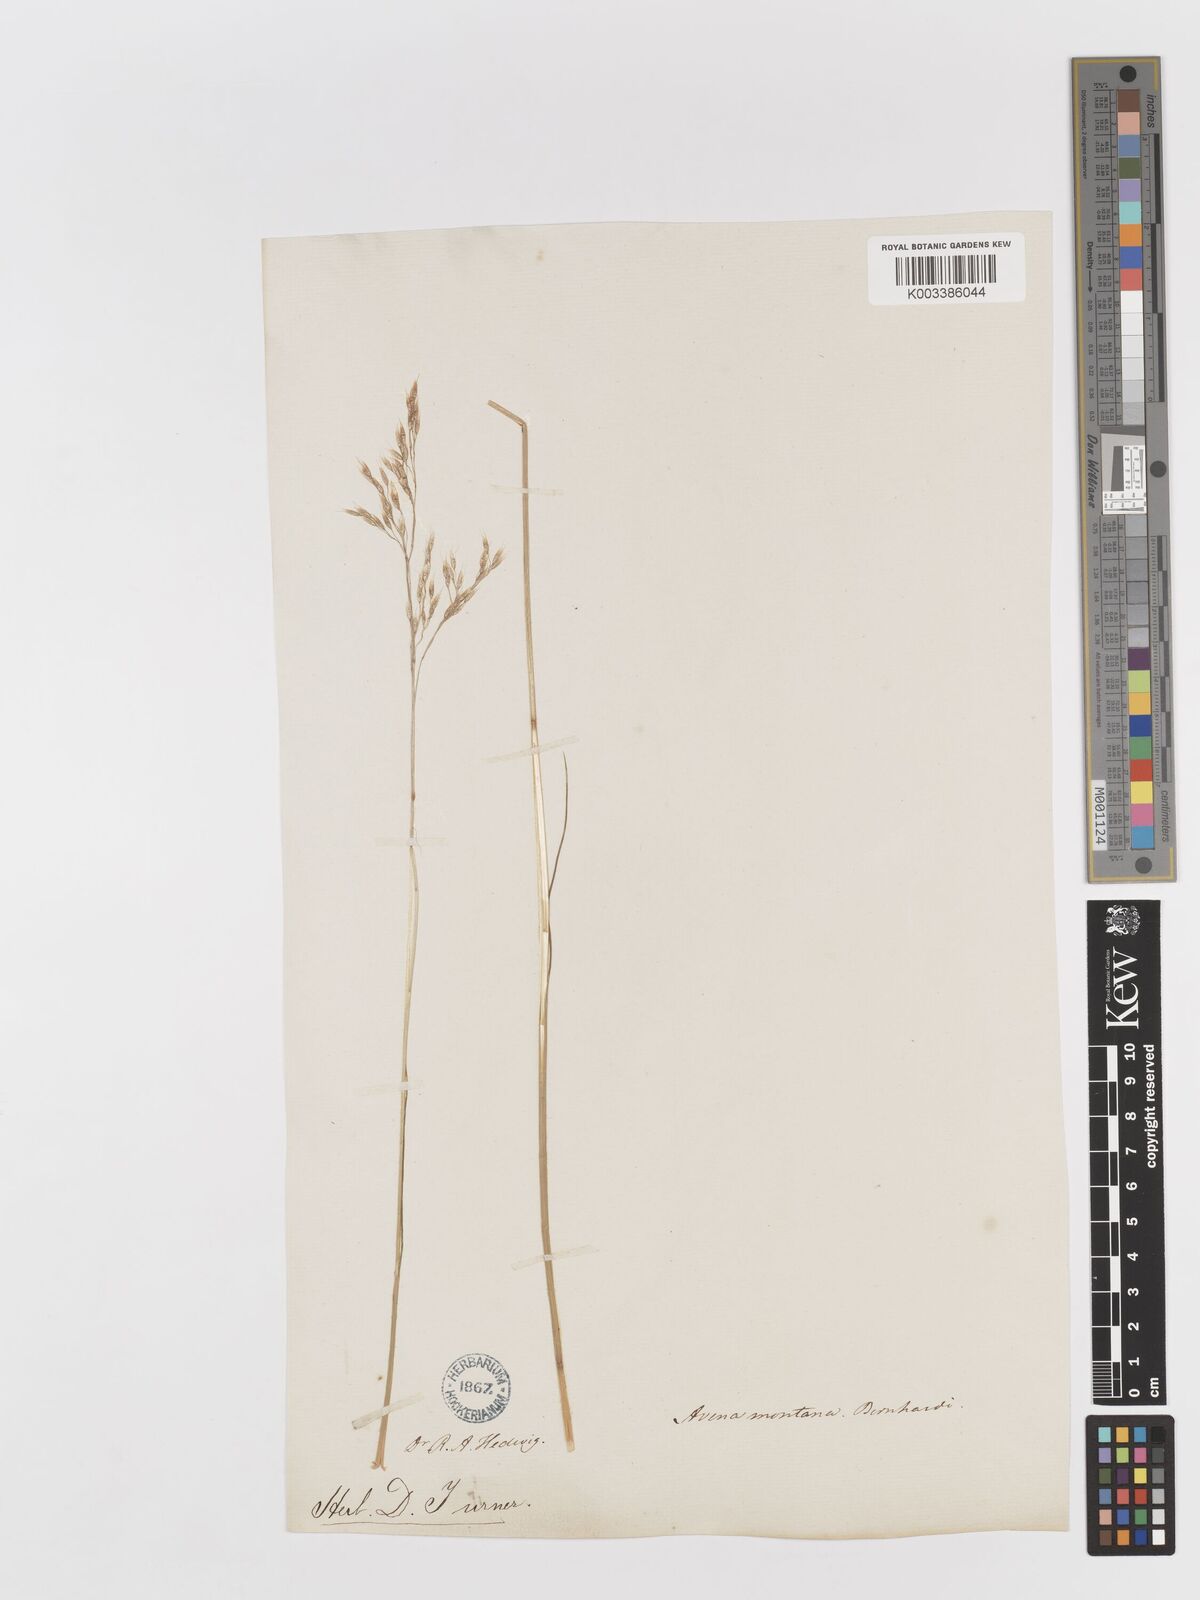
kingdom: Plantae
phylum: Tracheophyta
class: Liliopsida
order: Poales
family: Poaceae
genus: Avenella
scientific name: Avenella flexuosa
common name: Wavy hairgrass
